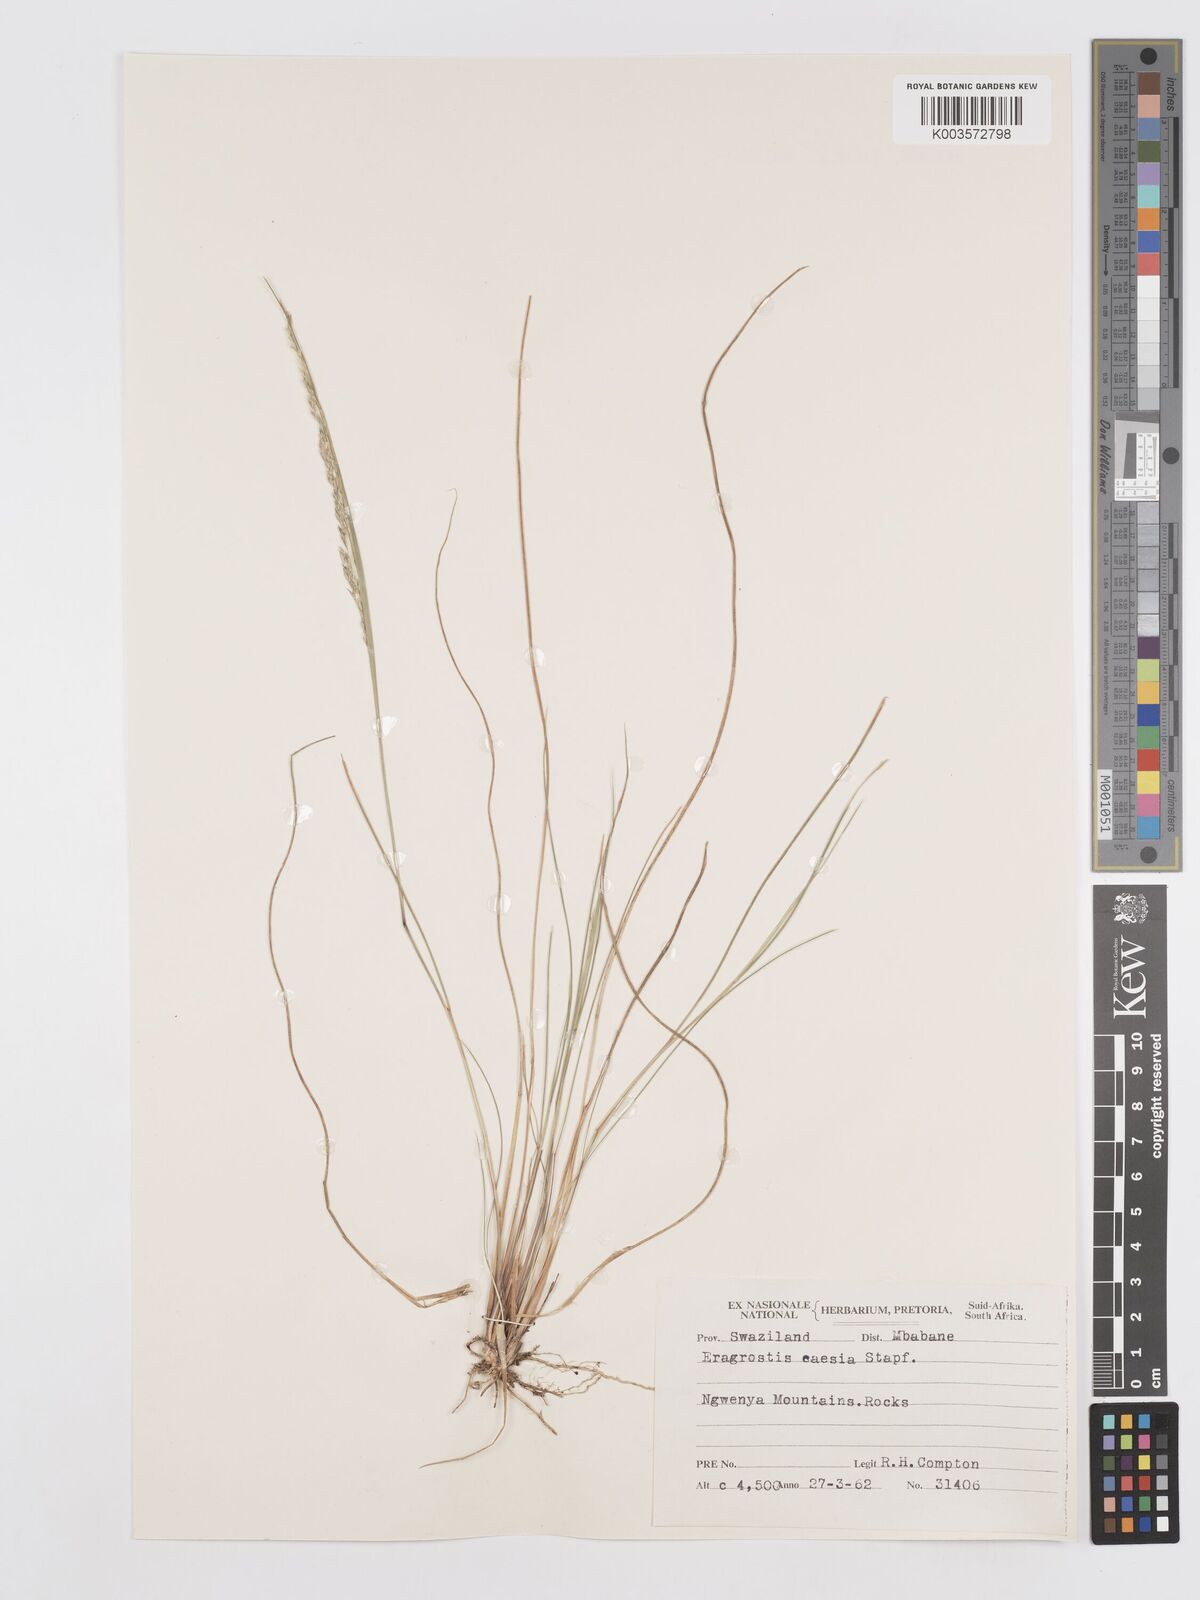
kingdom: Plantae
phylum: Tracheophyta
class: Liliopsida
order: Poales
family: Poaceae
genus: Eragrostis
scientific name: Eragrostis caesia
